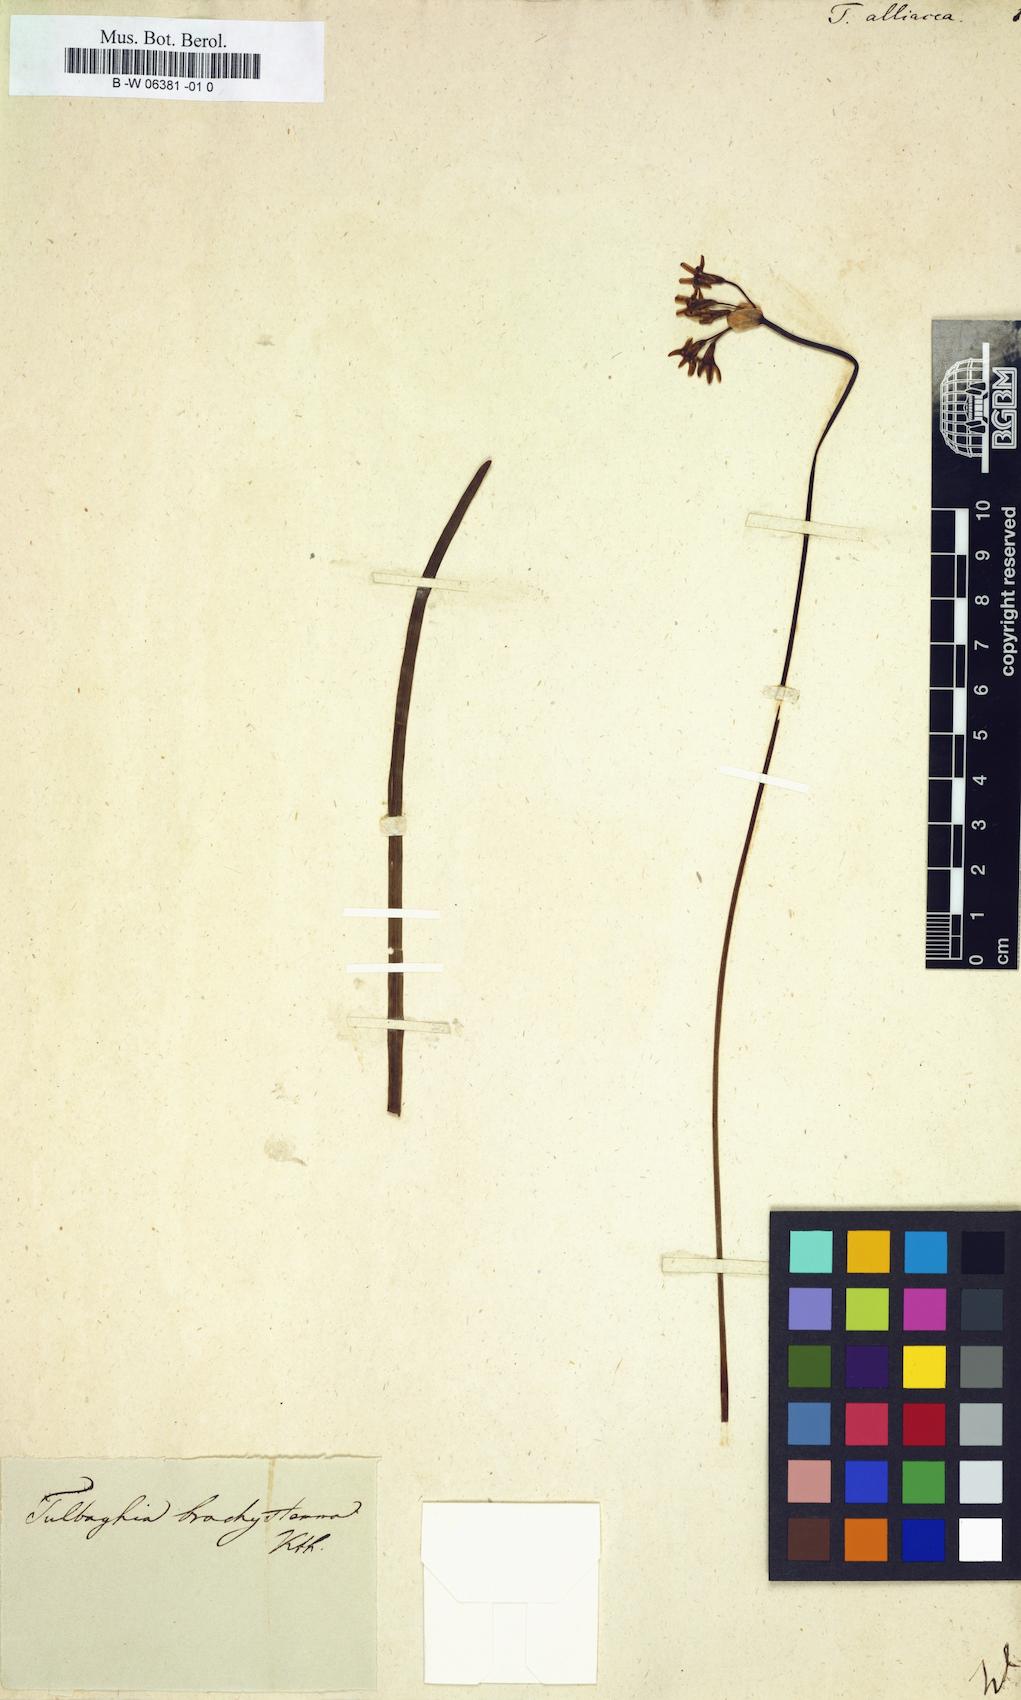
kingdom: Plantae
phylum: Tracheophyta
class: Liliopsida
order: Asparagales
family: Amaryllidaceae
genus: Tulbaghia
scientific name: Tulbaghia alliacea
